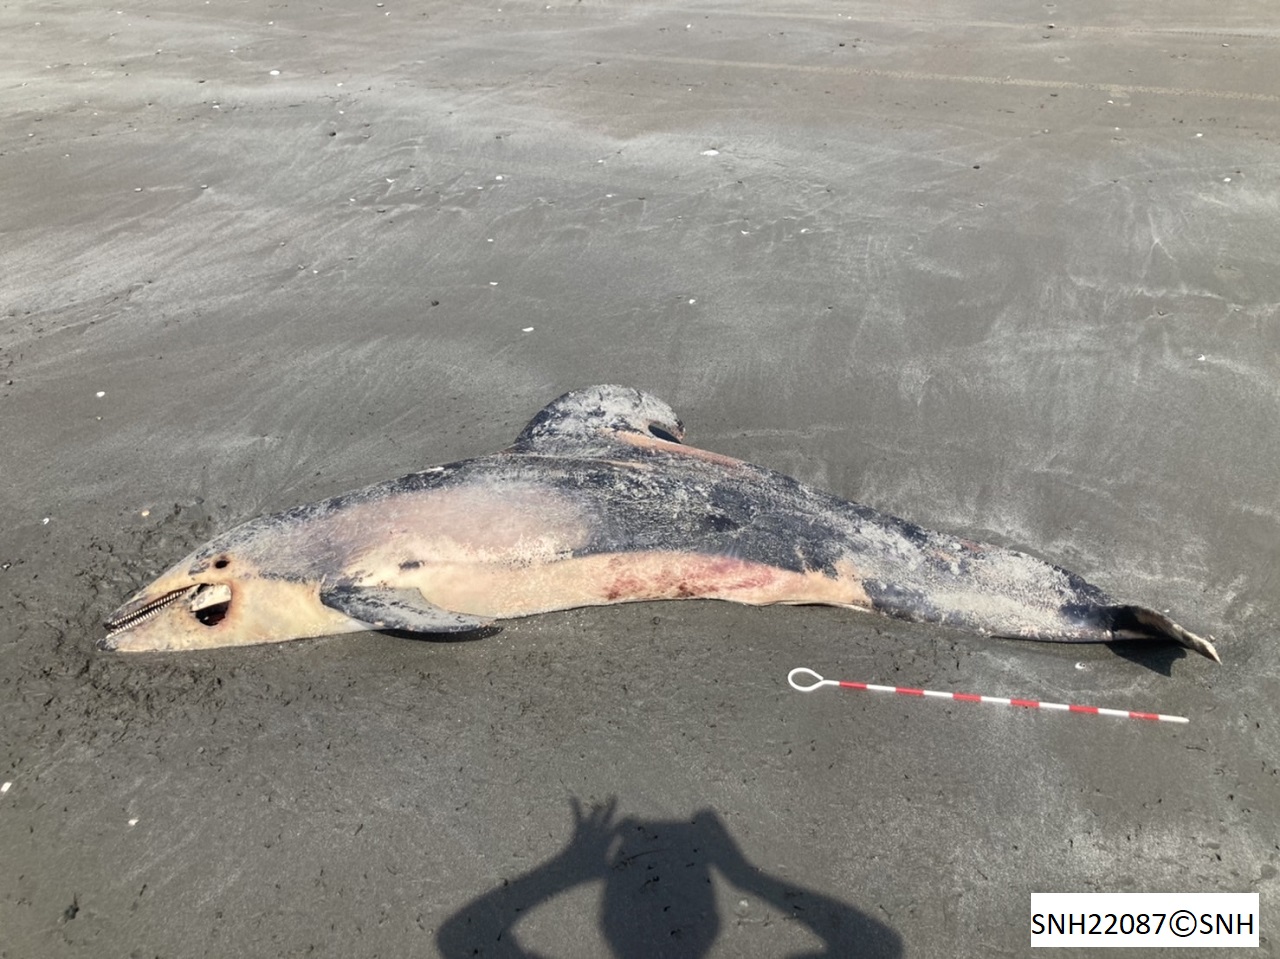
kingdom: Animalia
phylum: Chordata
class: Mammalia
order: Cetacea
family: Delphinidae
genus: Lagenorhynchus
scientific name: Lagenorhynchus obliquidens
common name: Pacific white-sided dolphin
